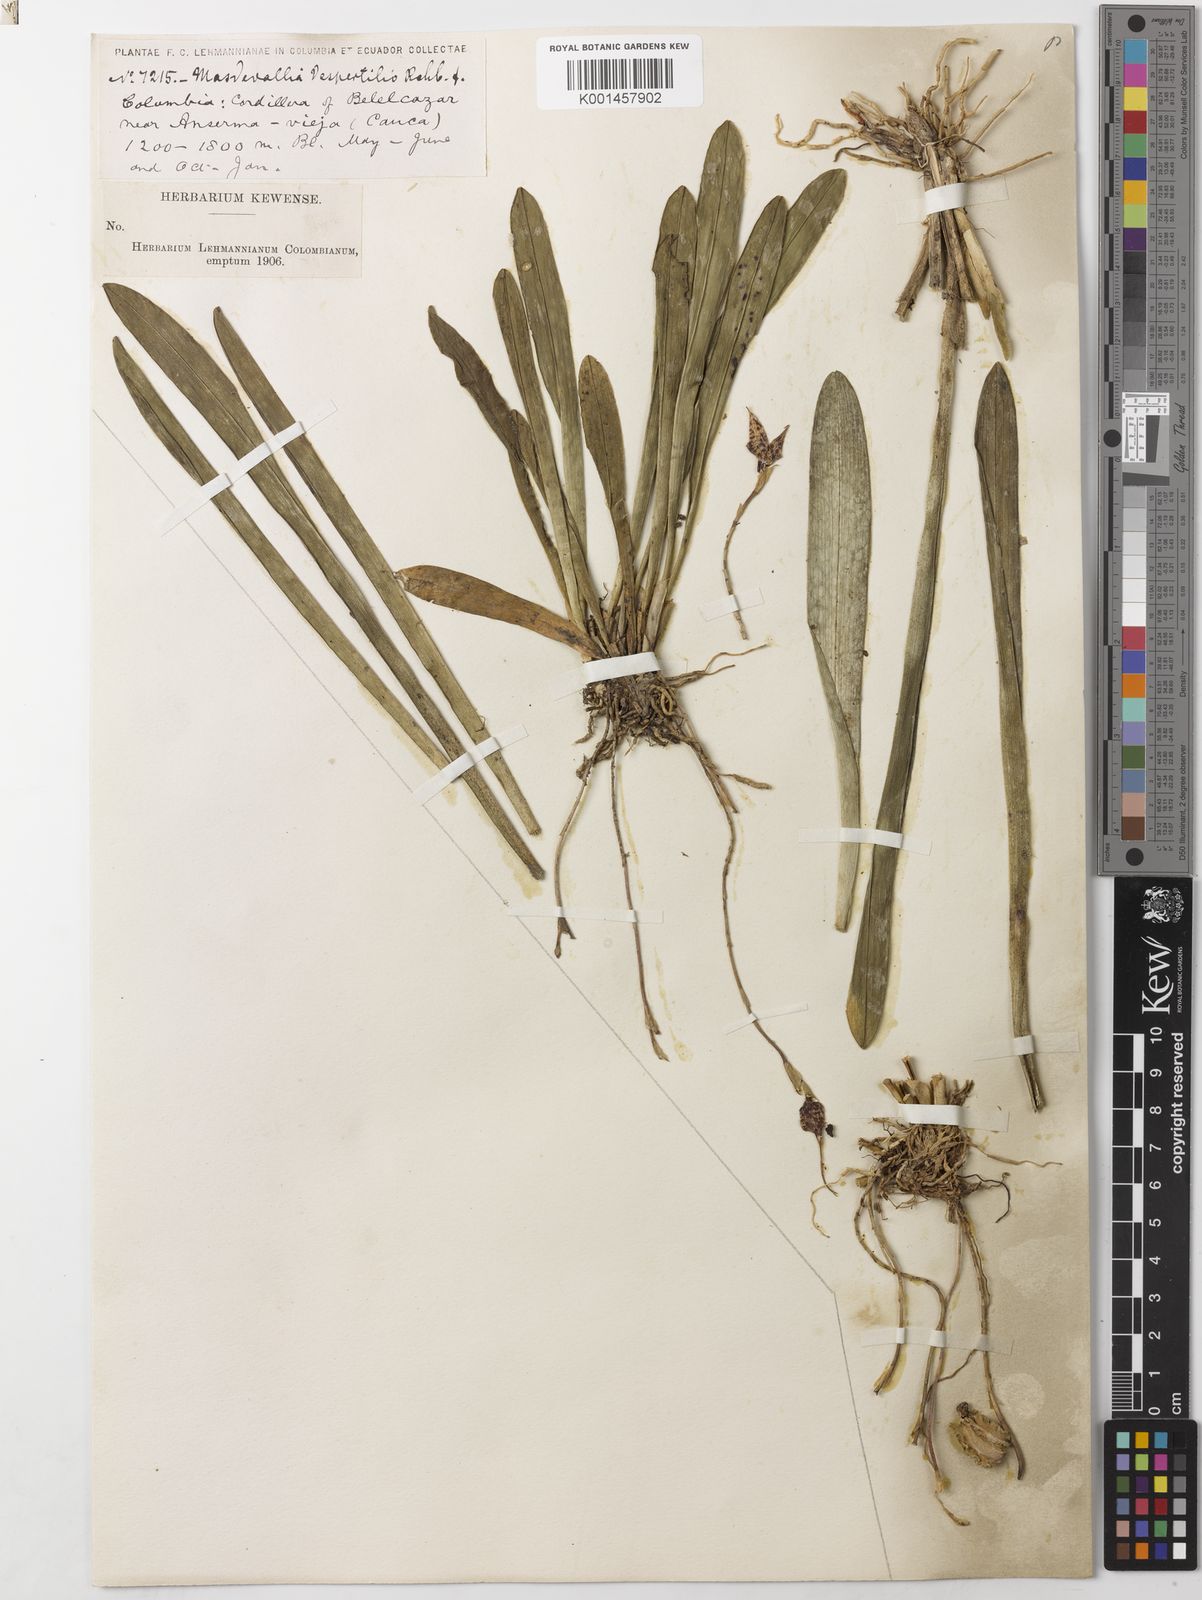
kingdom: Plantae
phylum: Tracheophyta
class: Liliopsida
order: Asparagales
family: Orchidaceae
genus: Dracula
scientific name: Dracula vespertilio
